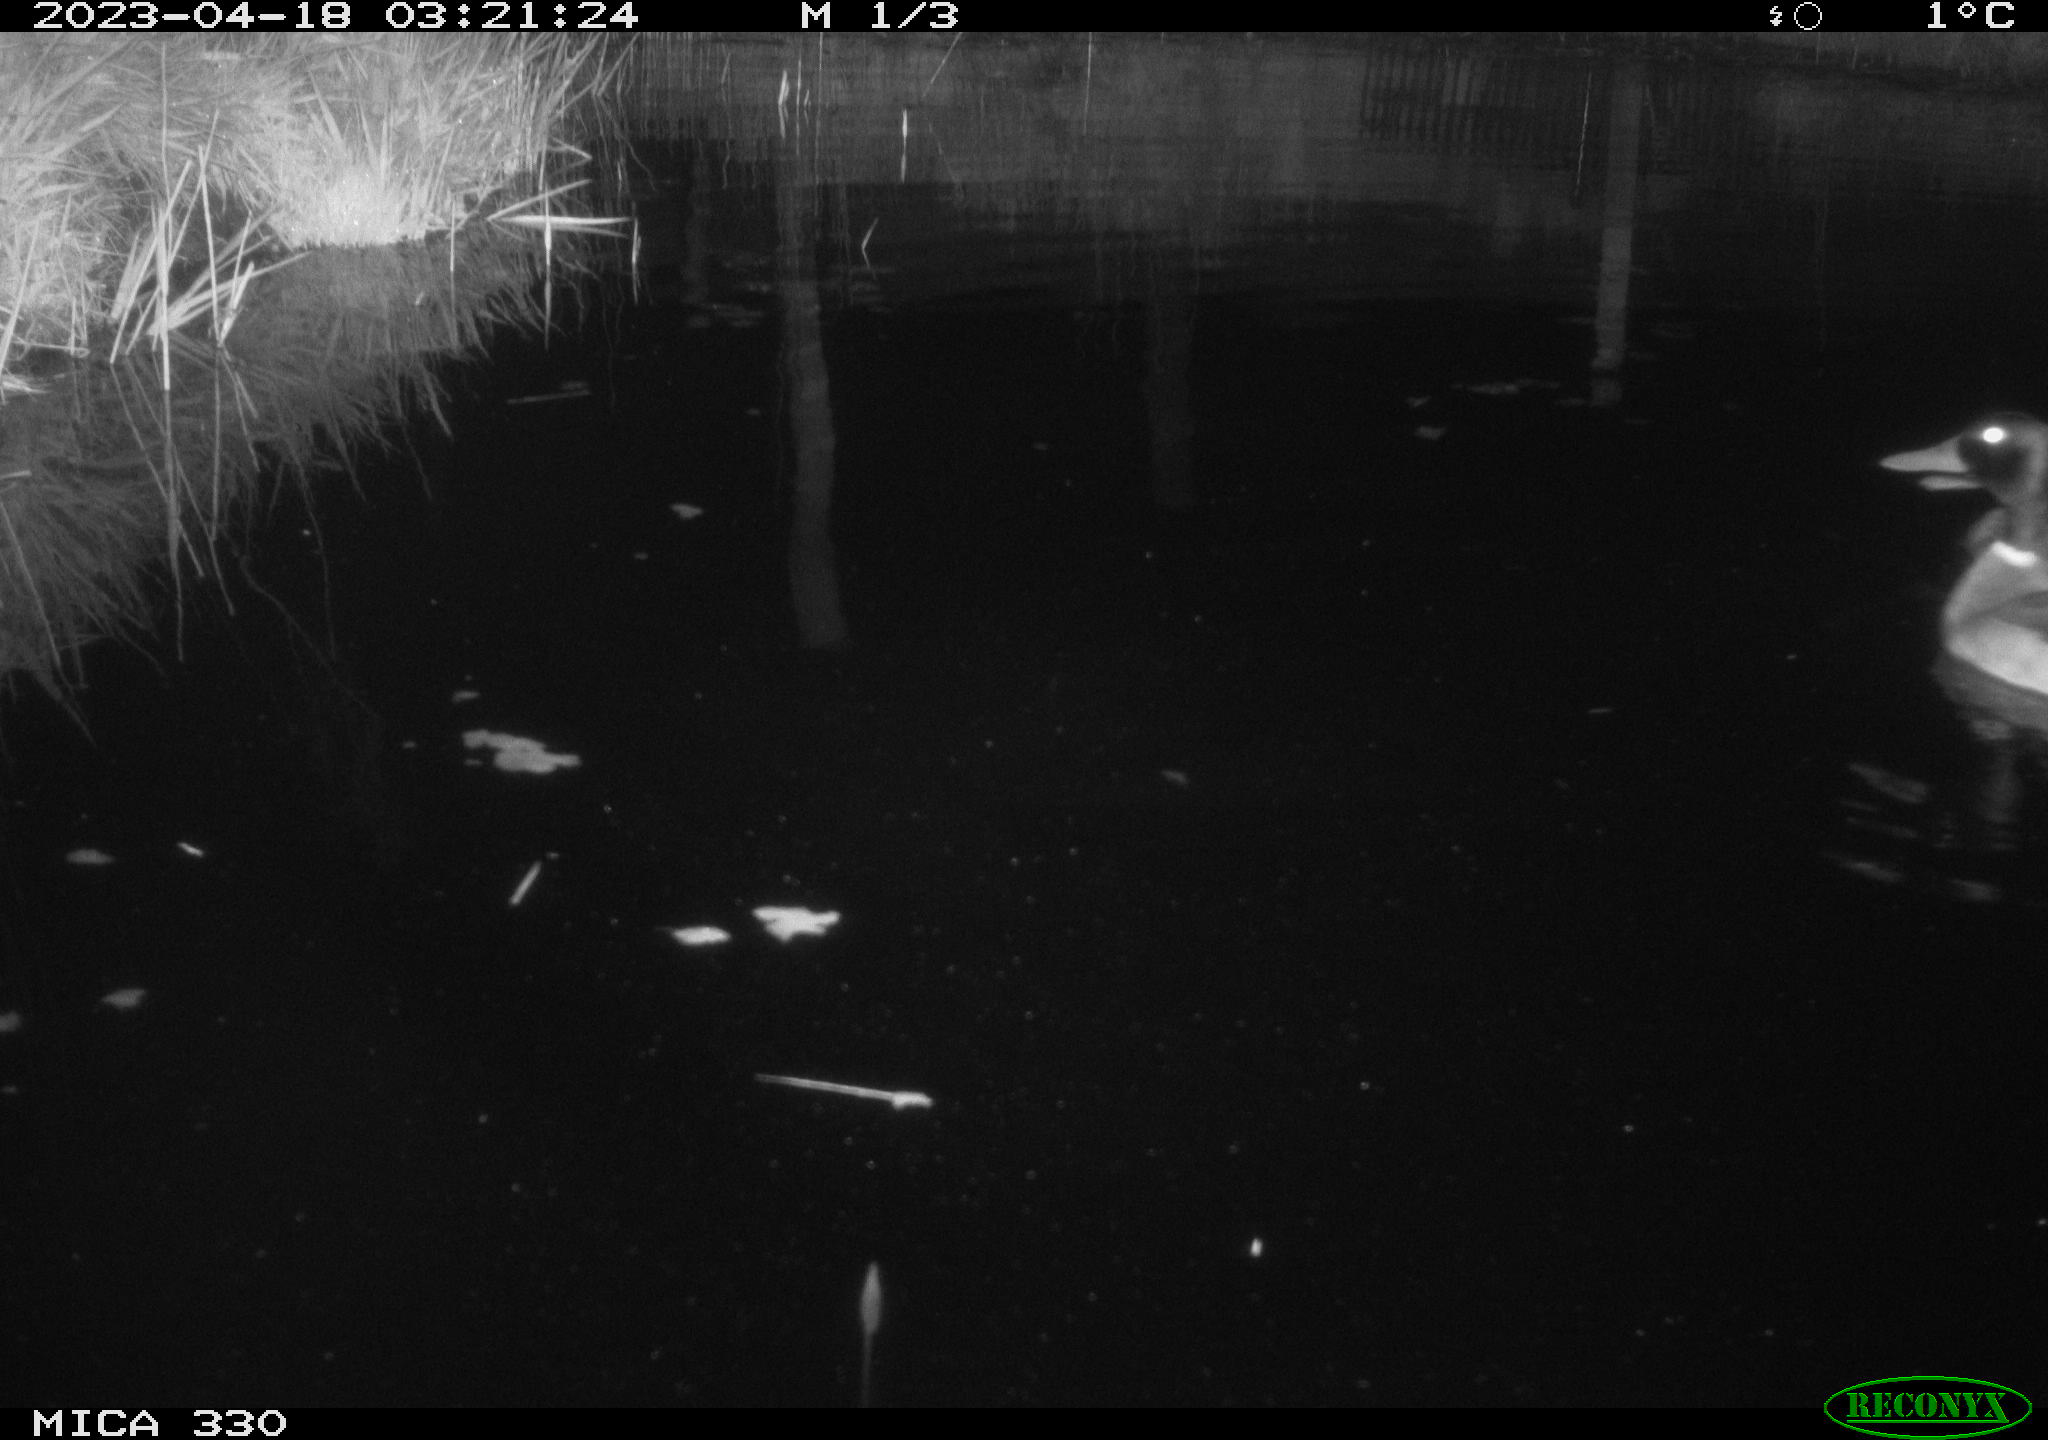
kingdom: Animalia
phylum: Chordata
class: Aves
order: Anseriformes
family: Anatidae
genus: Anas
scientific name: Anas
